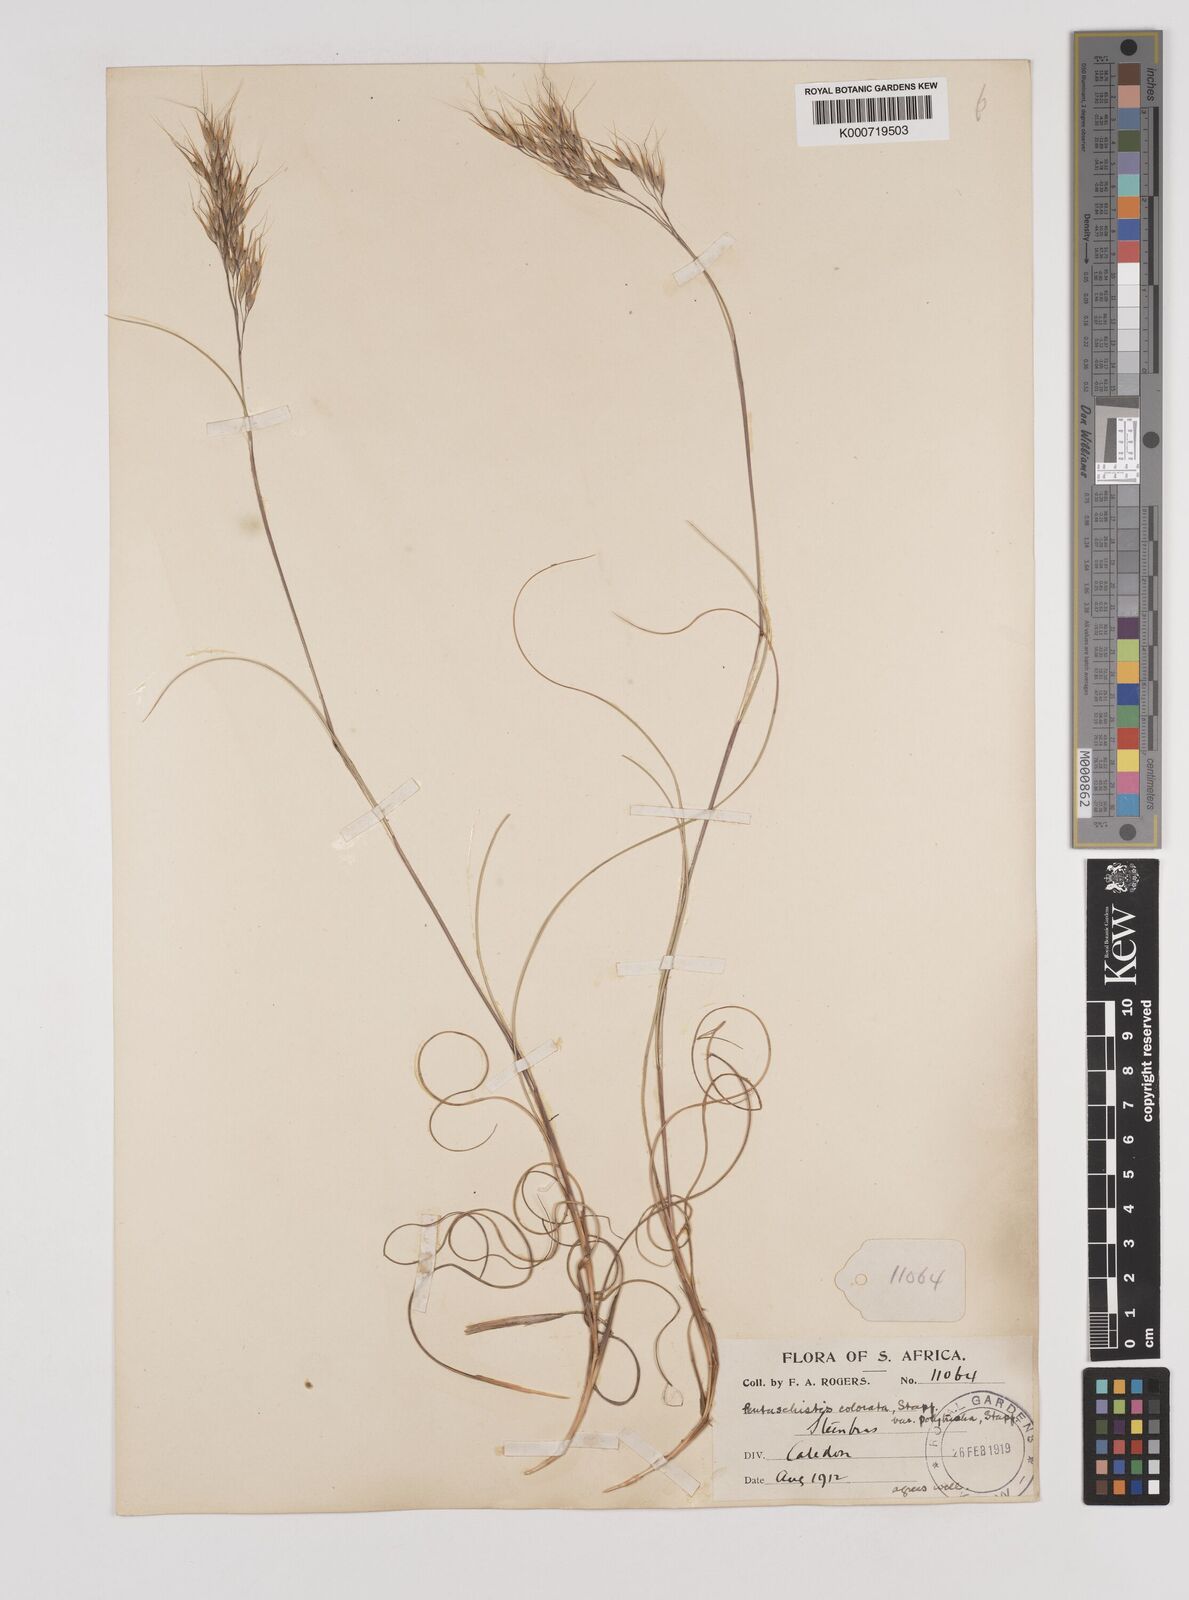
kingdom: Plantae
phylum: Tracheophyta
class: Liliopsida
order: Poales
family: Poaceae
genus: Pentameris
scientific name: Pentameris colorata
